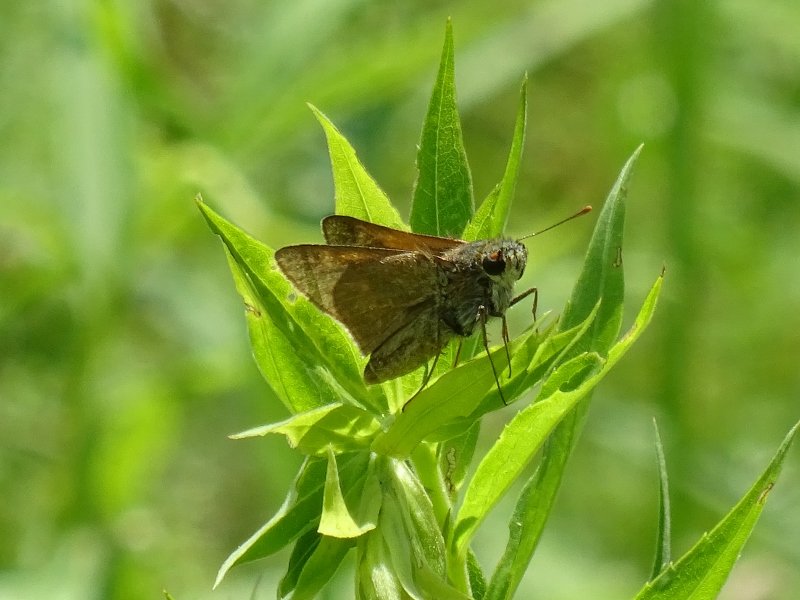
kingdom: Animalia
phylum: Arthropoda
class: Insecta
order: Lepidoptera
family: Hesperiidae
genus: Euphyes
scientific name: Euphyes vestris
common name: Dun Skipper
